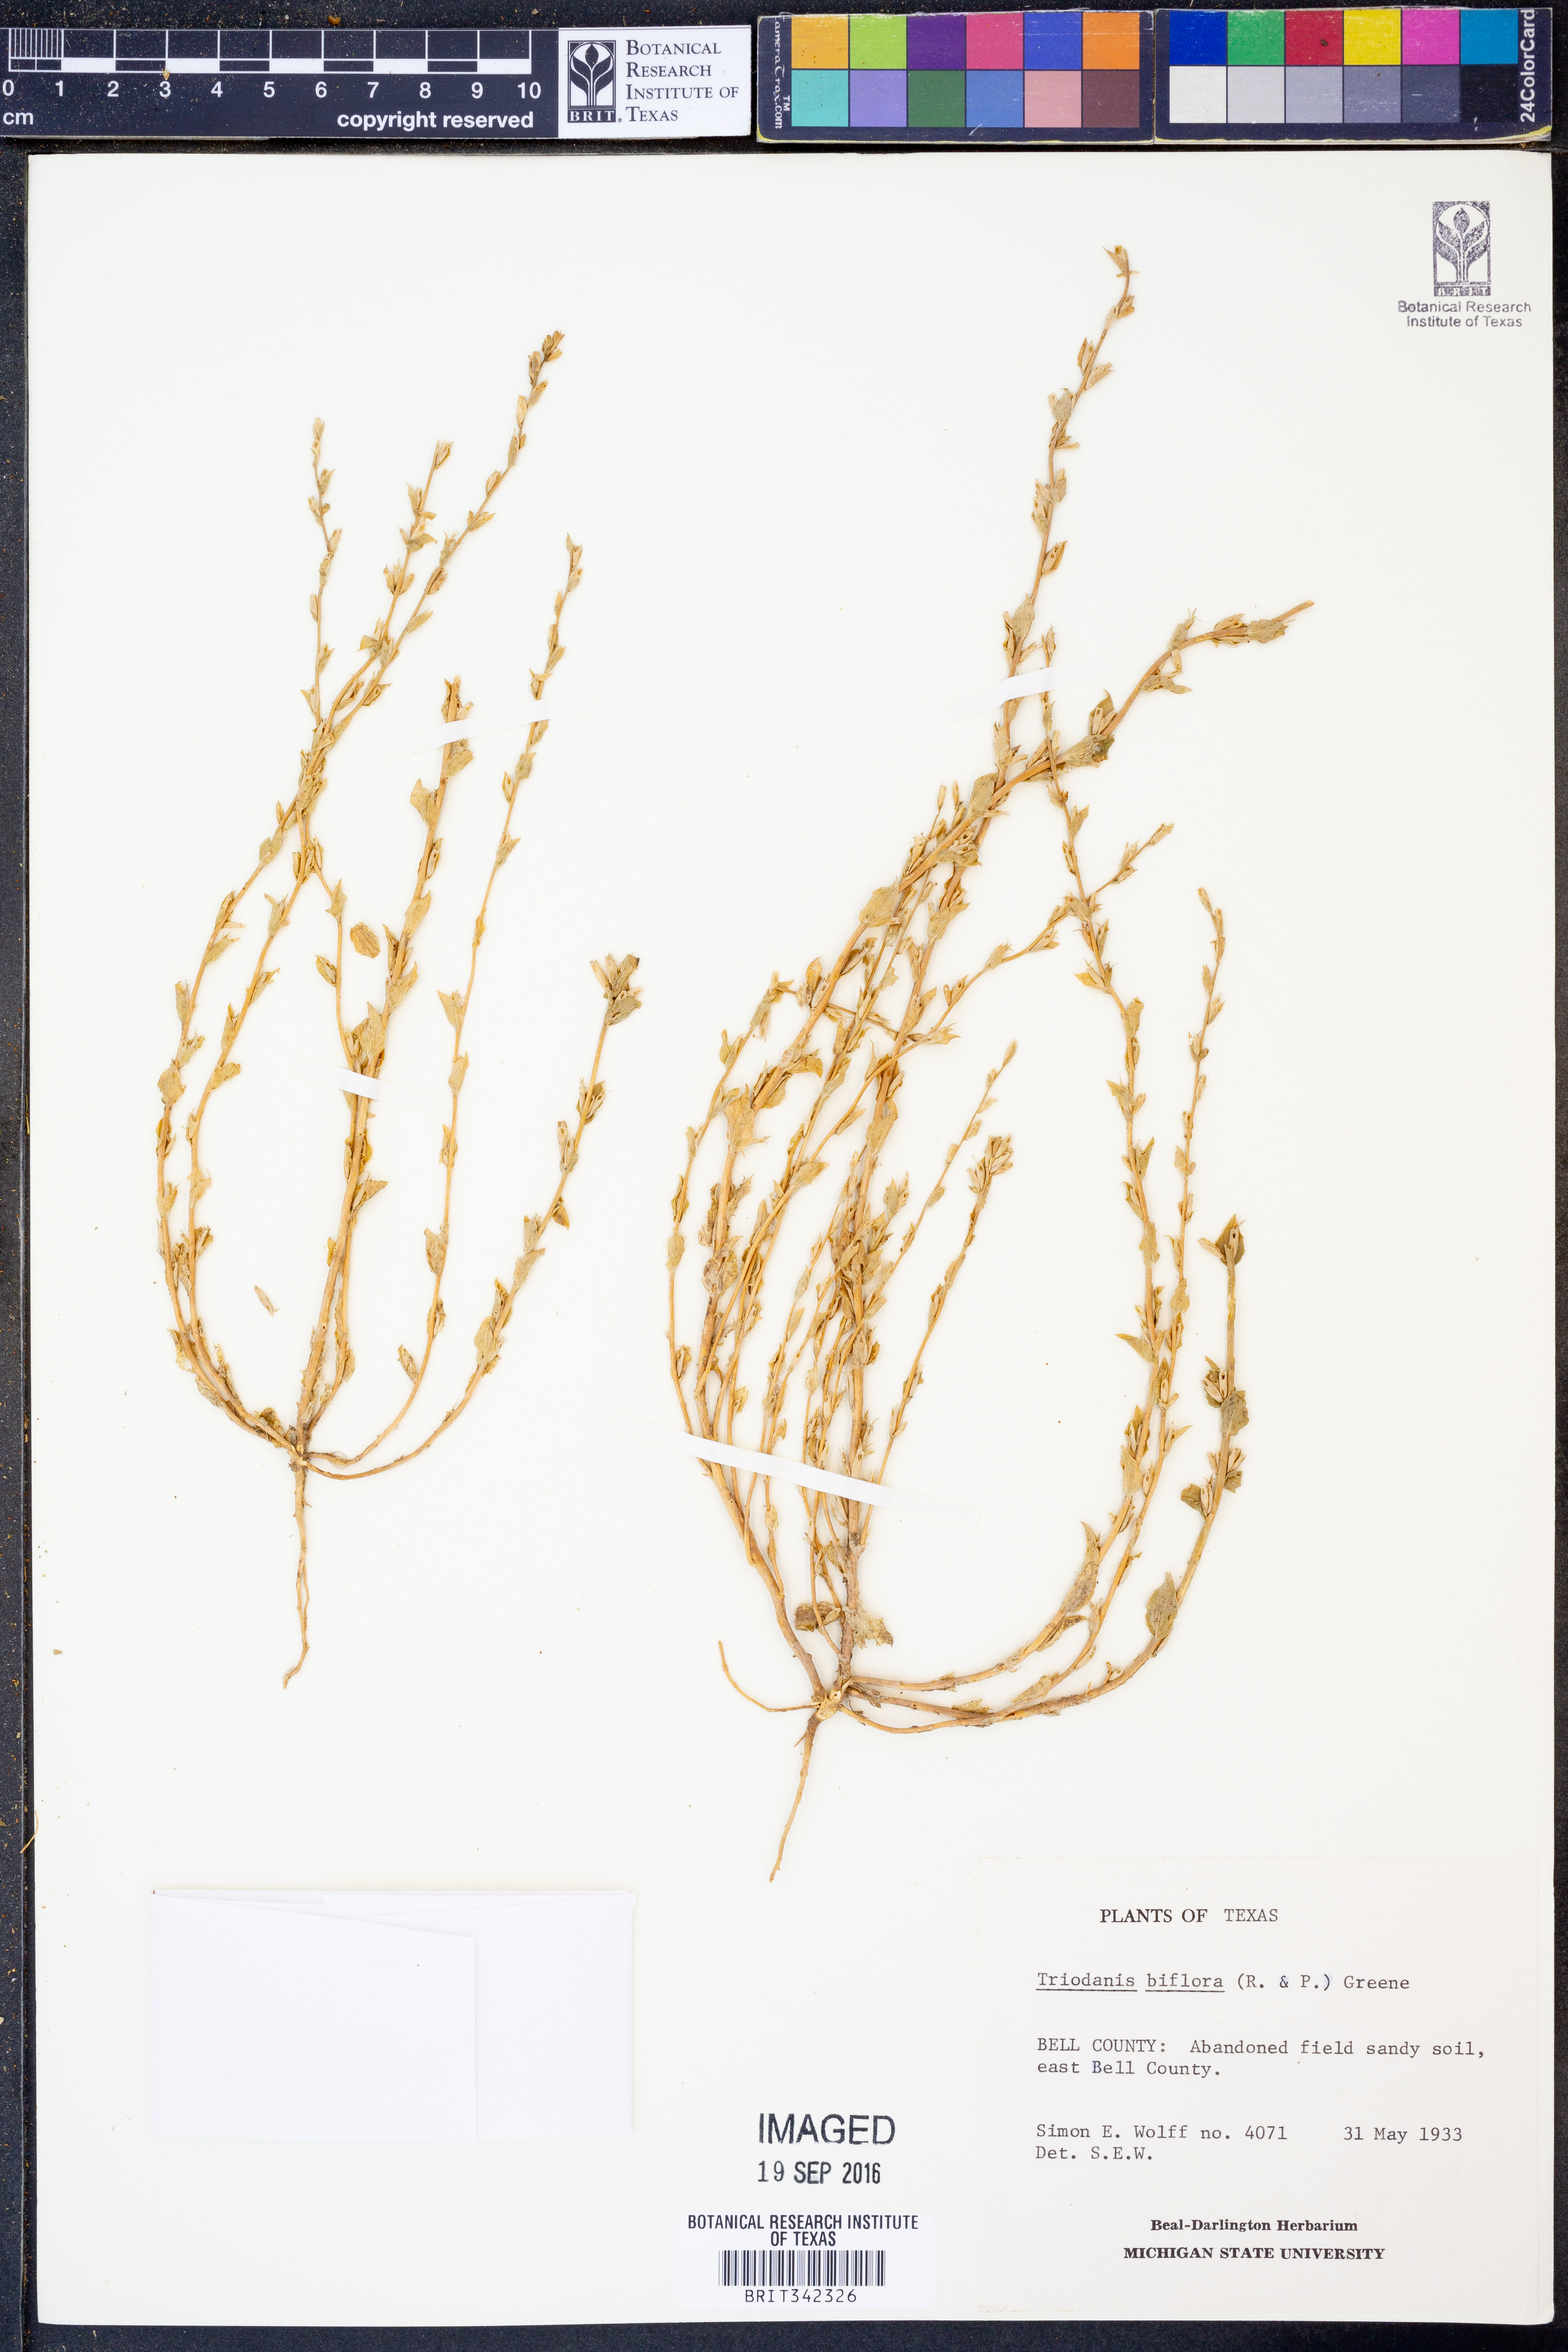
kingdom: Plantae
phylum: Tracheophyta
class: Magnoliopsida
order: Asterales
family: Campanulaceae
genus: Triodanis
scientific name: Triodanis perfoliata
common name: Clasping venus' looking-glass
